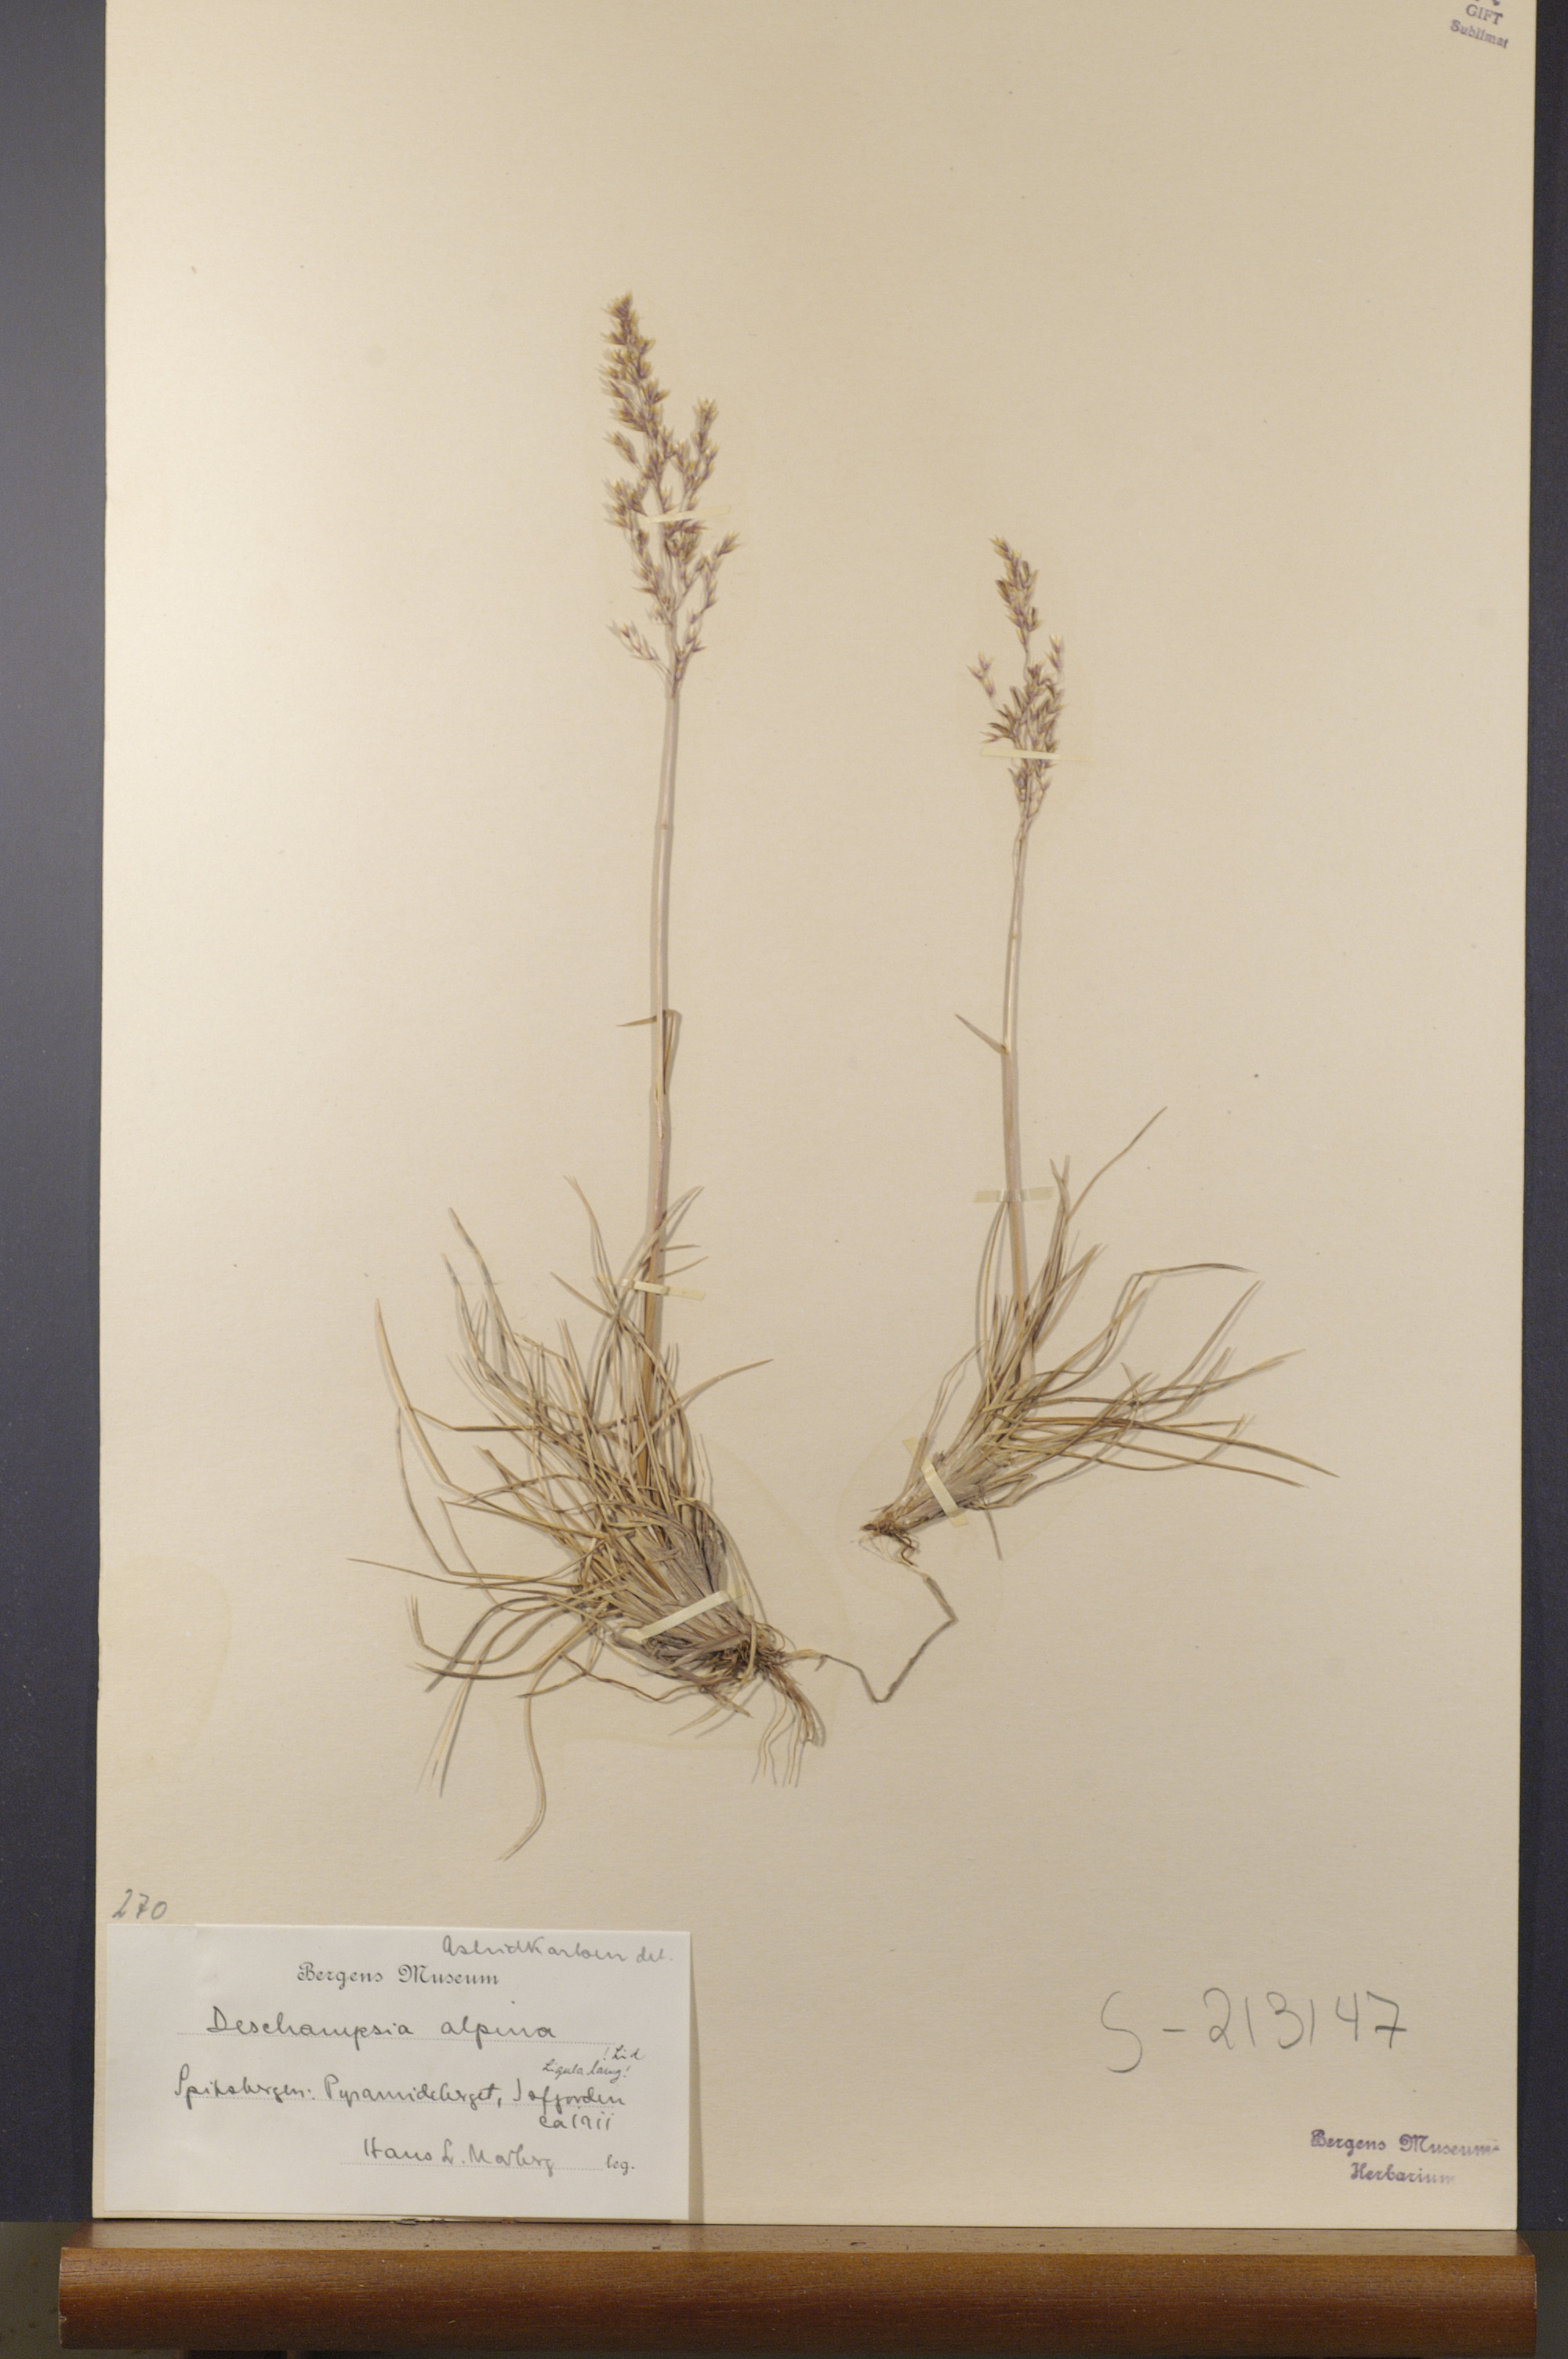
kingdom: Plantae
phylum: Tracheophyta
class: Liliopsida
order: Poales
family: Poaceae
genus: Deschampsia
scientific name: Deschampsia cespitosa
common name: Tufted hair-grass
